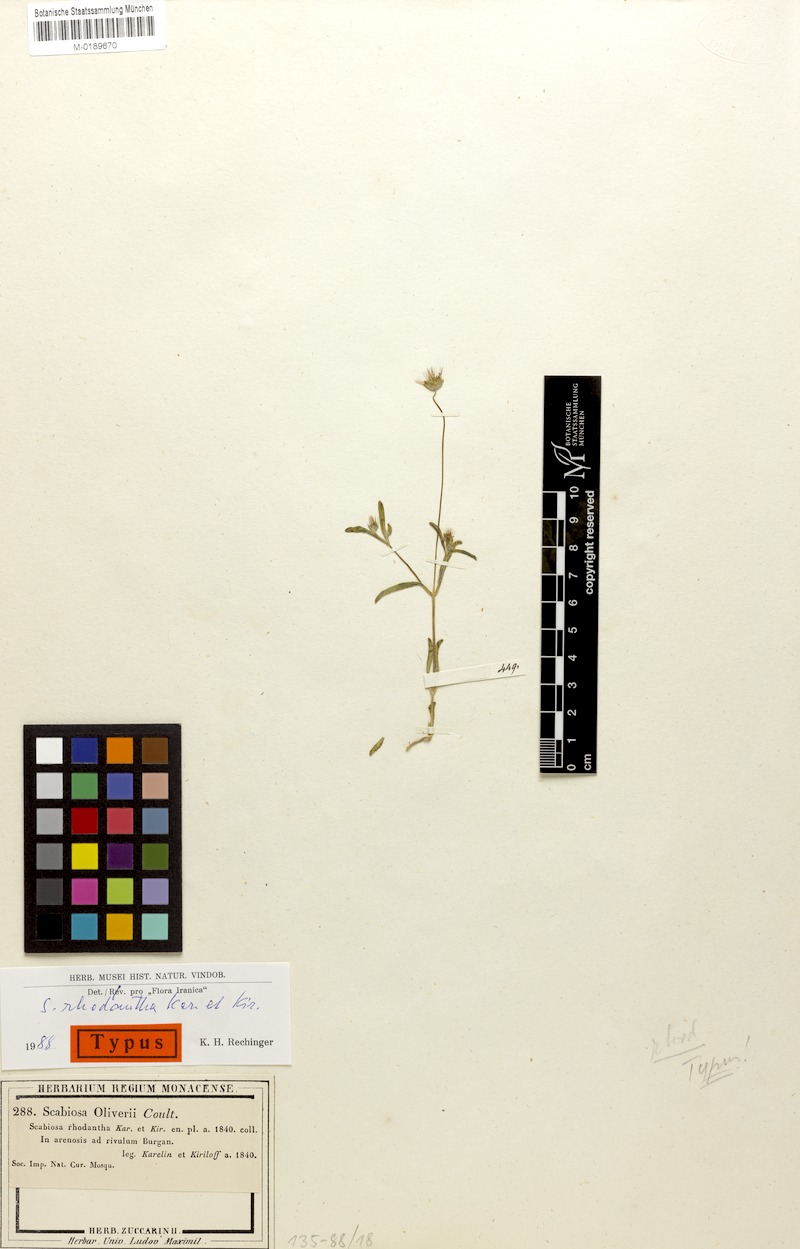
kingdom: Plantae
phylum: Tracheophyta
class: Magnoliopsida
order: Dipsacales
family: Caprifoliaceae
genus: Lomelosia
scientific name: Lomelosia olivieri
